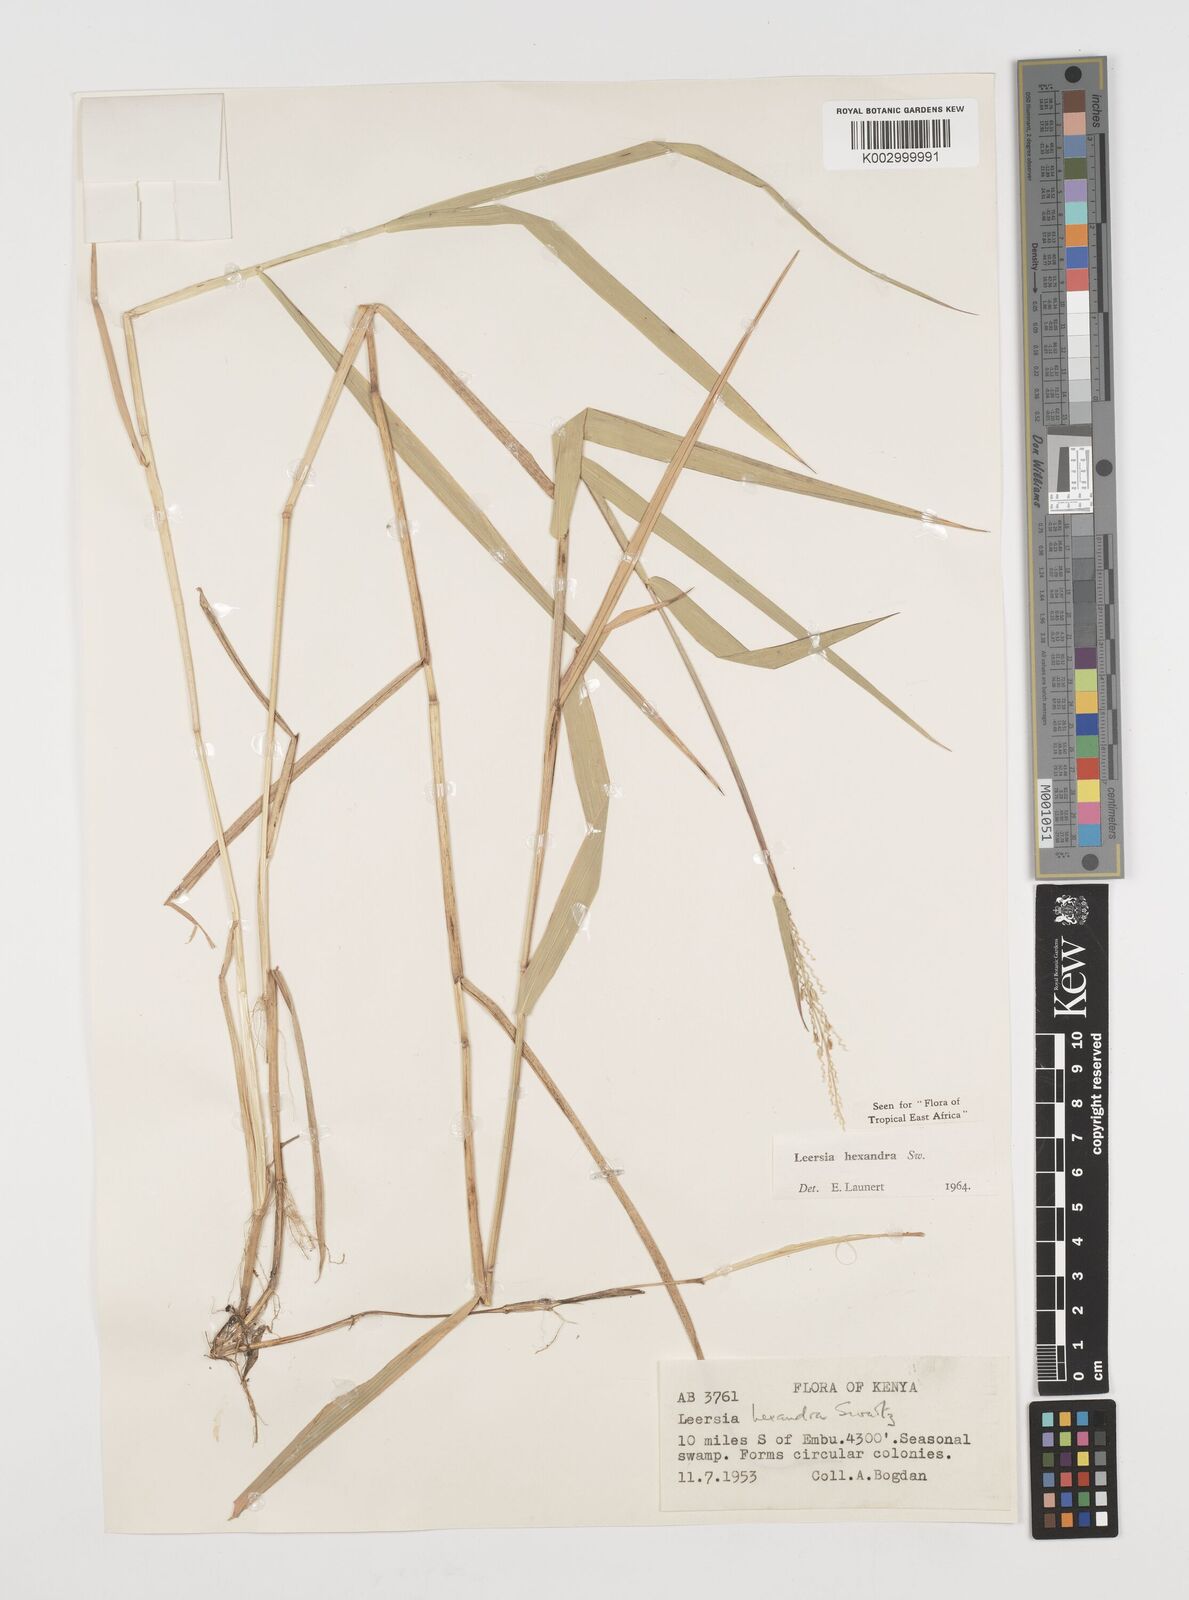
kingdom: Plantae
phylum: Tracheophyta
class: Liliopsida
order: Poales
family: Poaceae
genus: Leersia
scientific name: Leersia hexandra
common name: Southern cut grass
